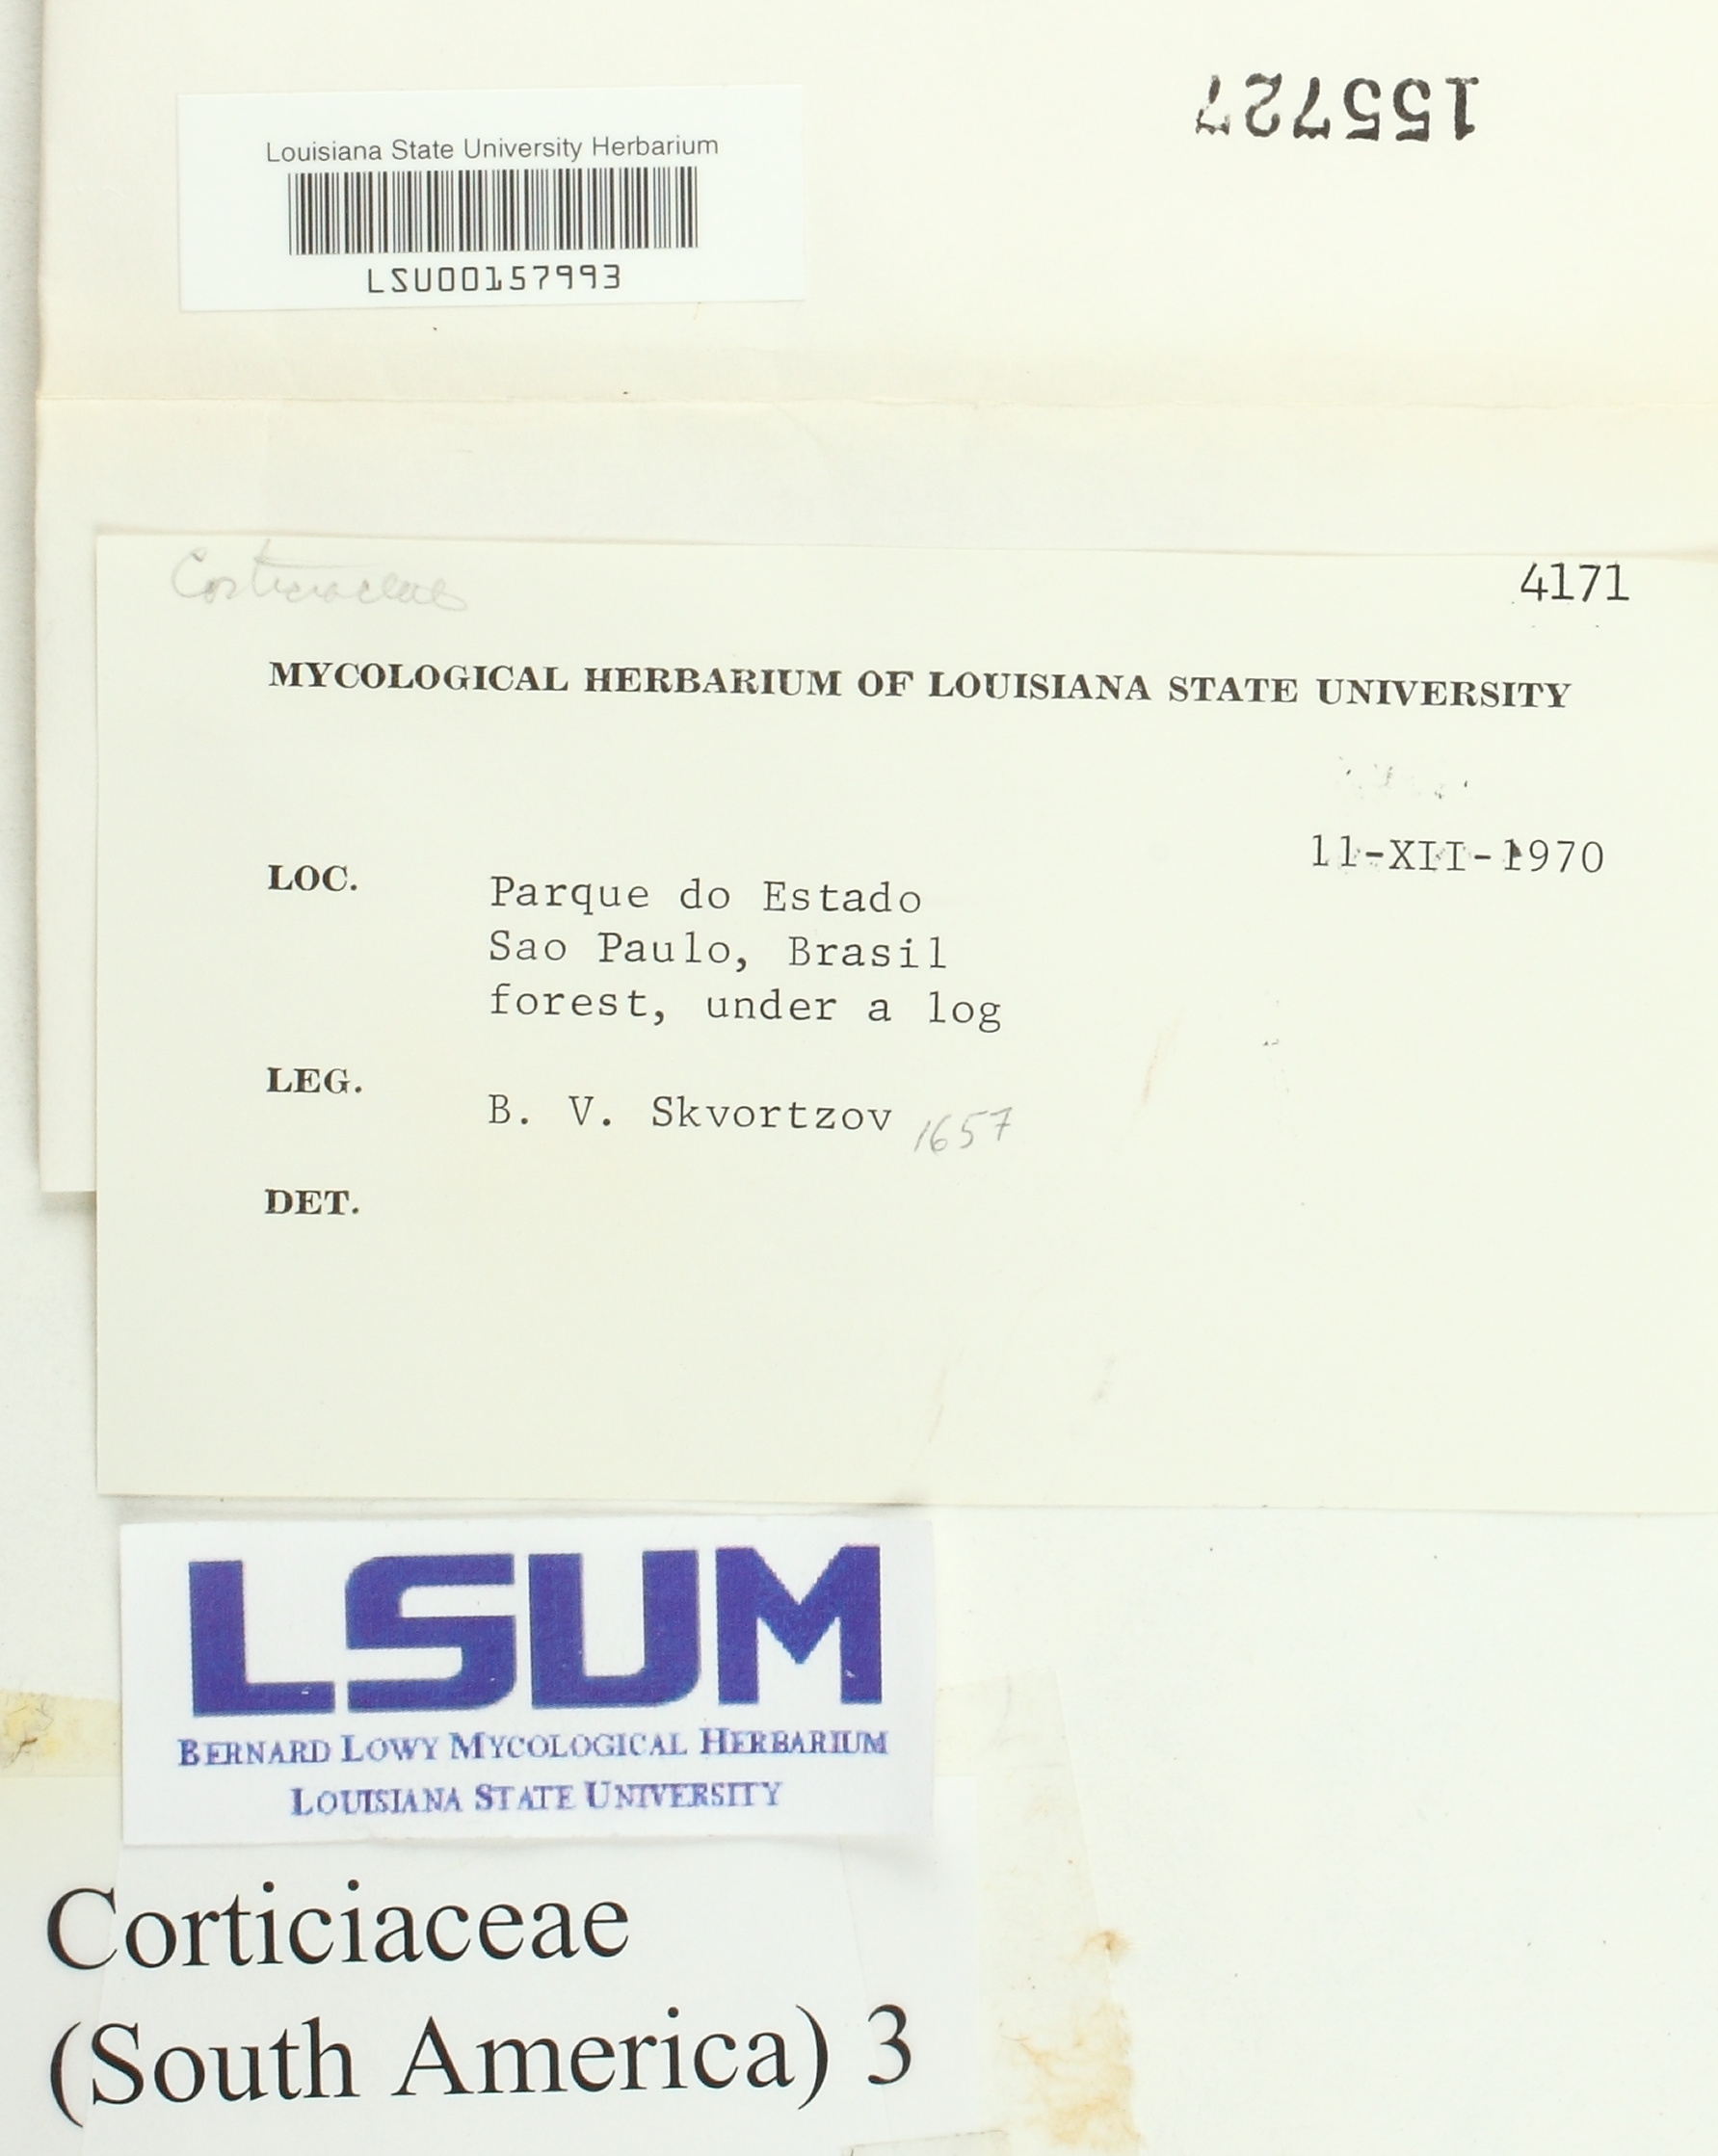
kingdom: Fungi
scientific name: Fungi
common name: Fungi
